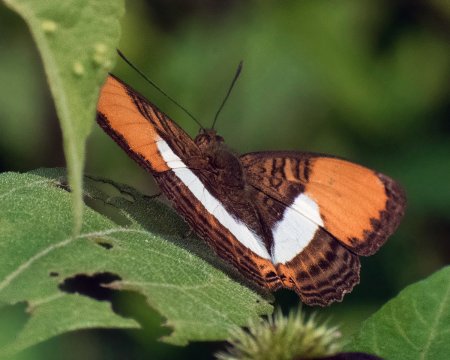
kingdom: Animalia
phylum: Arthropoda
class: Insecta
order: Lepidoptera
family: Nymphalidae
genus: Limenitis
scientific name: Limenitis cytherea
